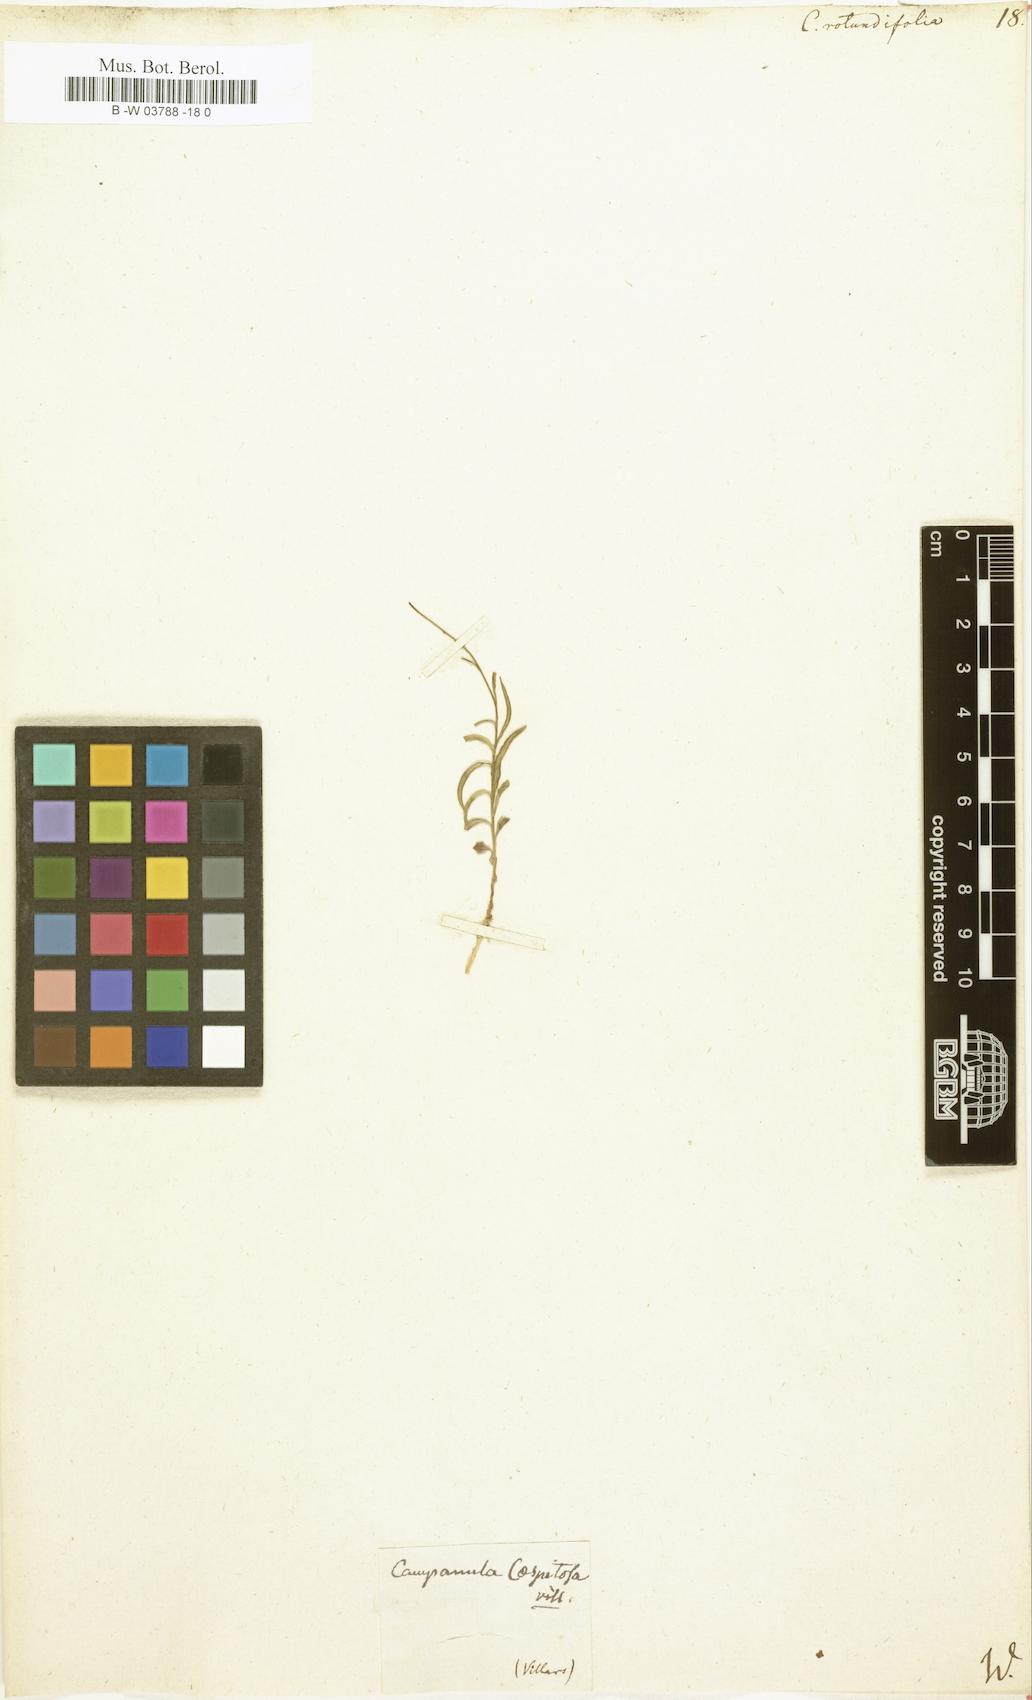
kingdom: Plantae
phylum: Tracheophyta
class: Magnoliopsida
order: Asterales
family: Campanulaceae
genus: Campanula
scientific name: Campanula rotundifolia
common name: Harebell
